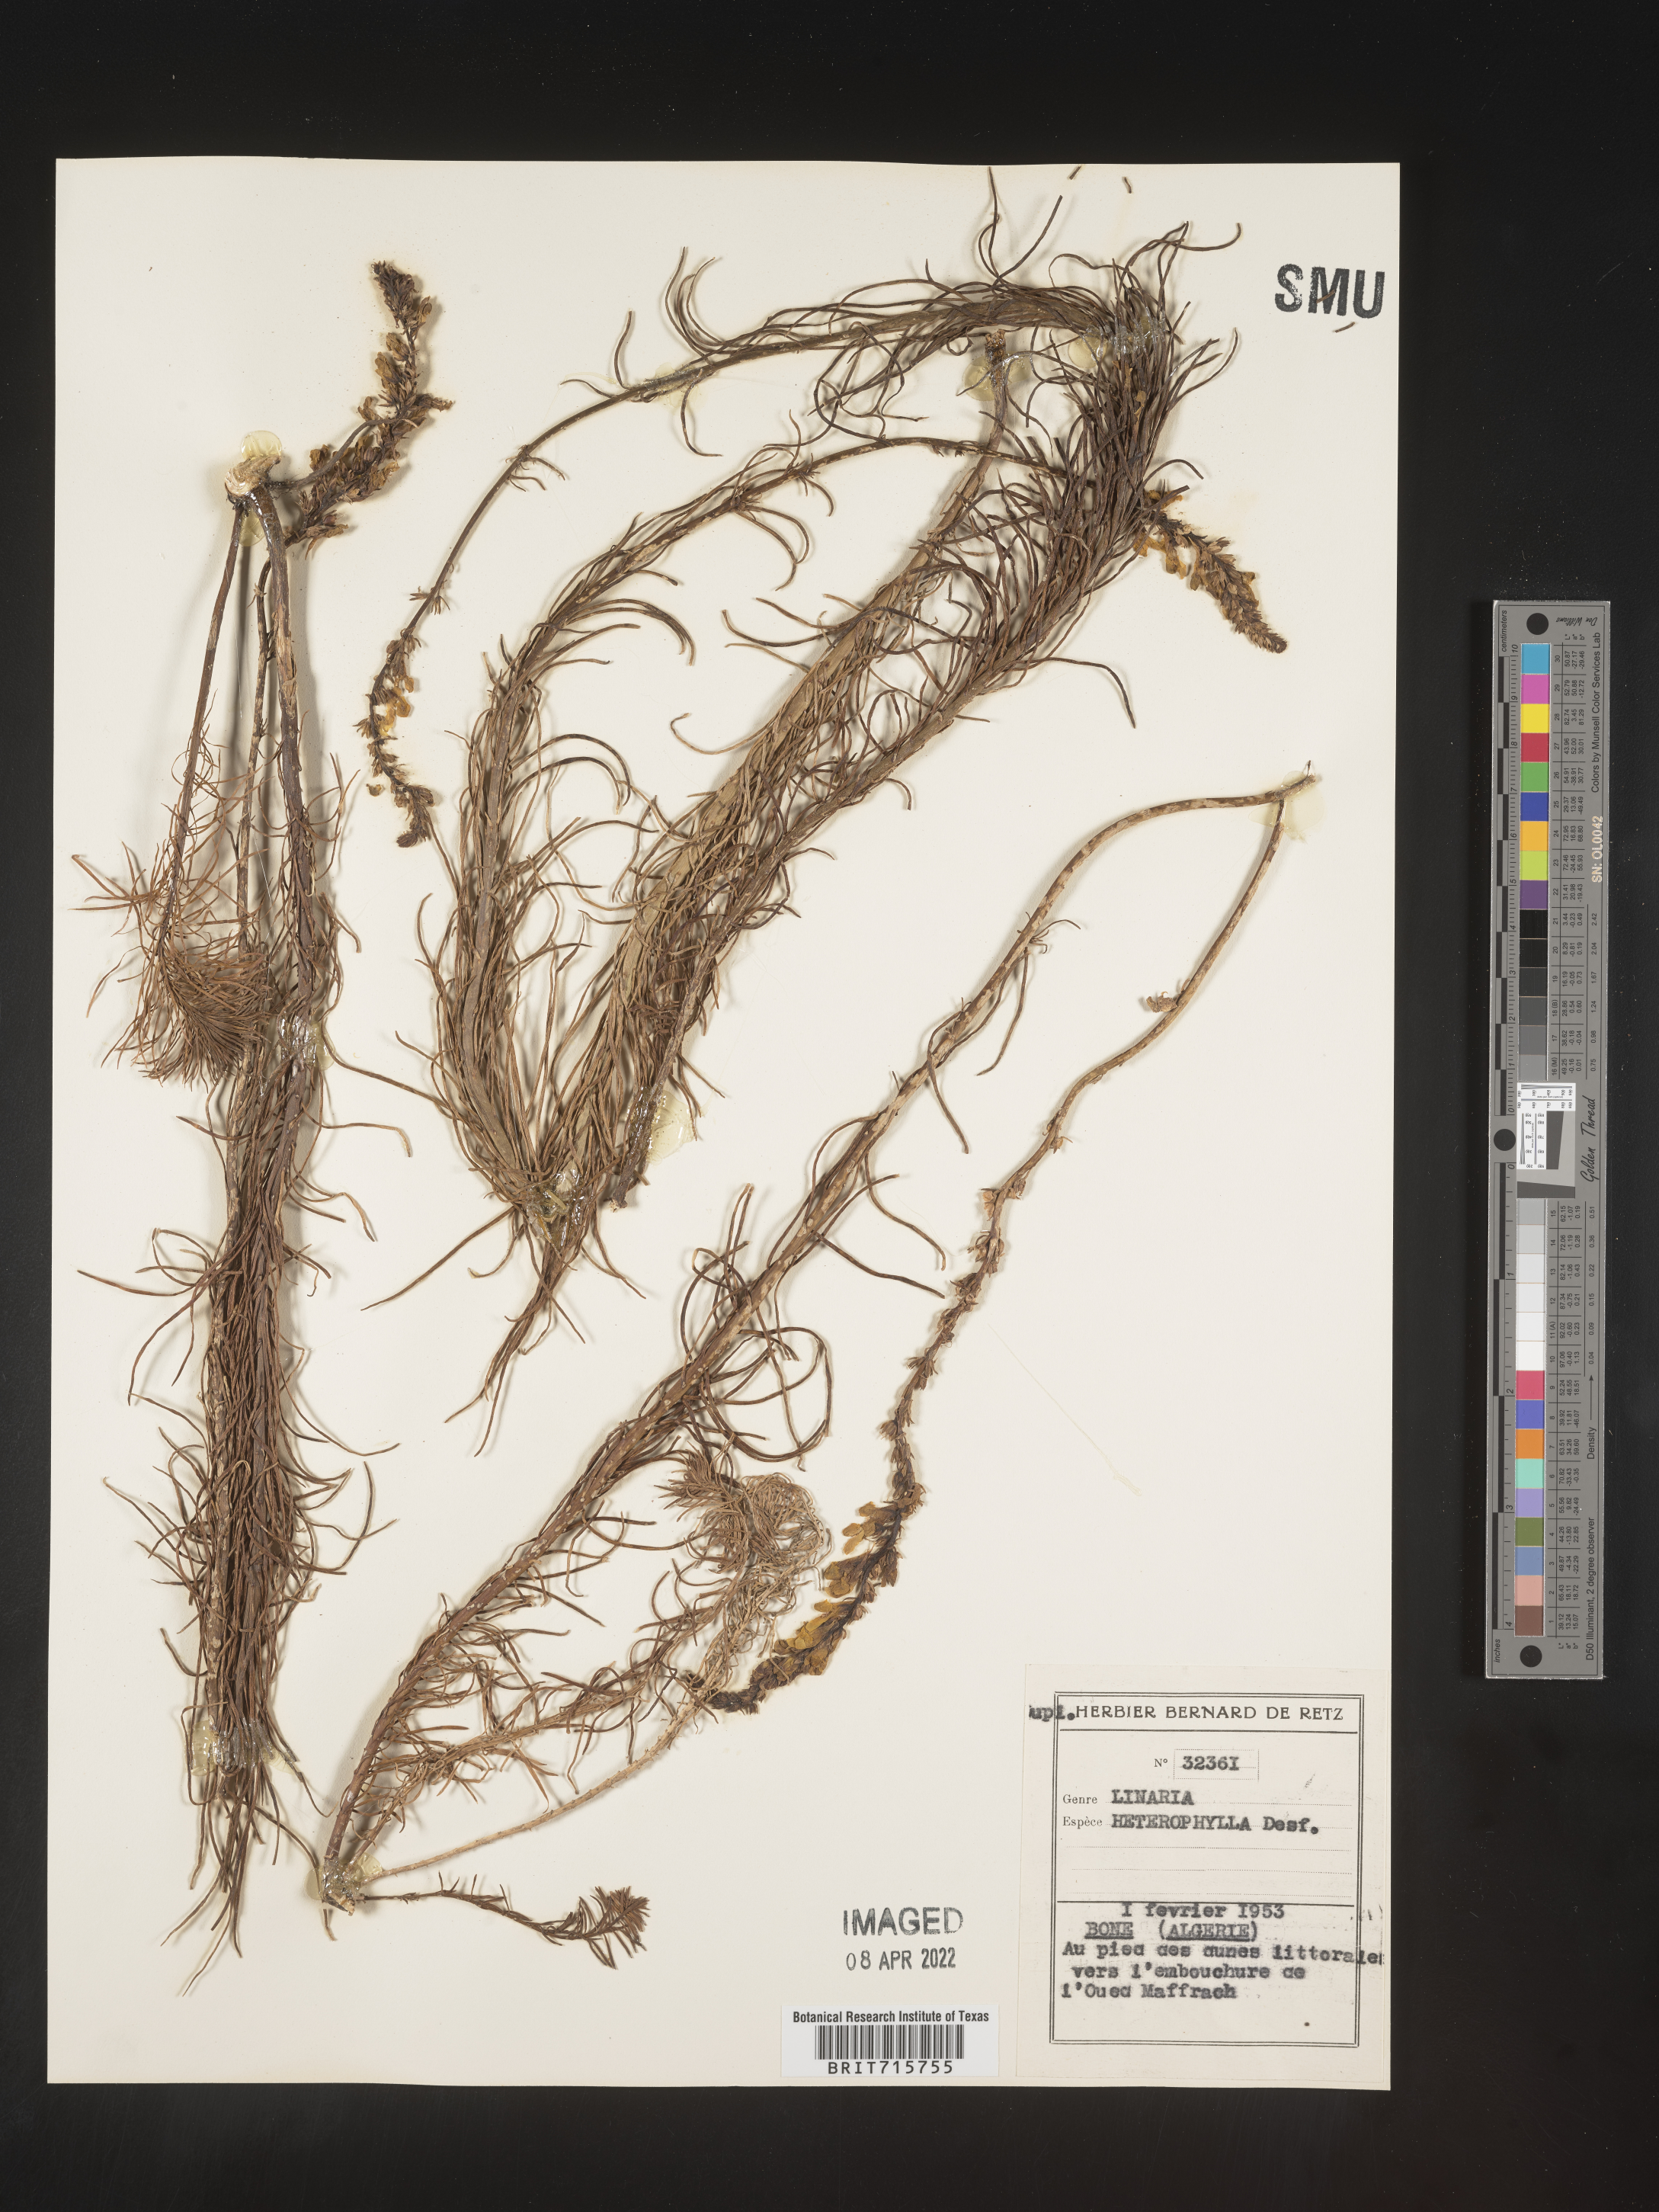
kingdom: Plantae
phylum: Tracheophyta
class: Magnoliopsida
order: Lamiales
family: Plantaginaceae
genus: Linaria
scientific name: Linaria
